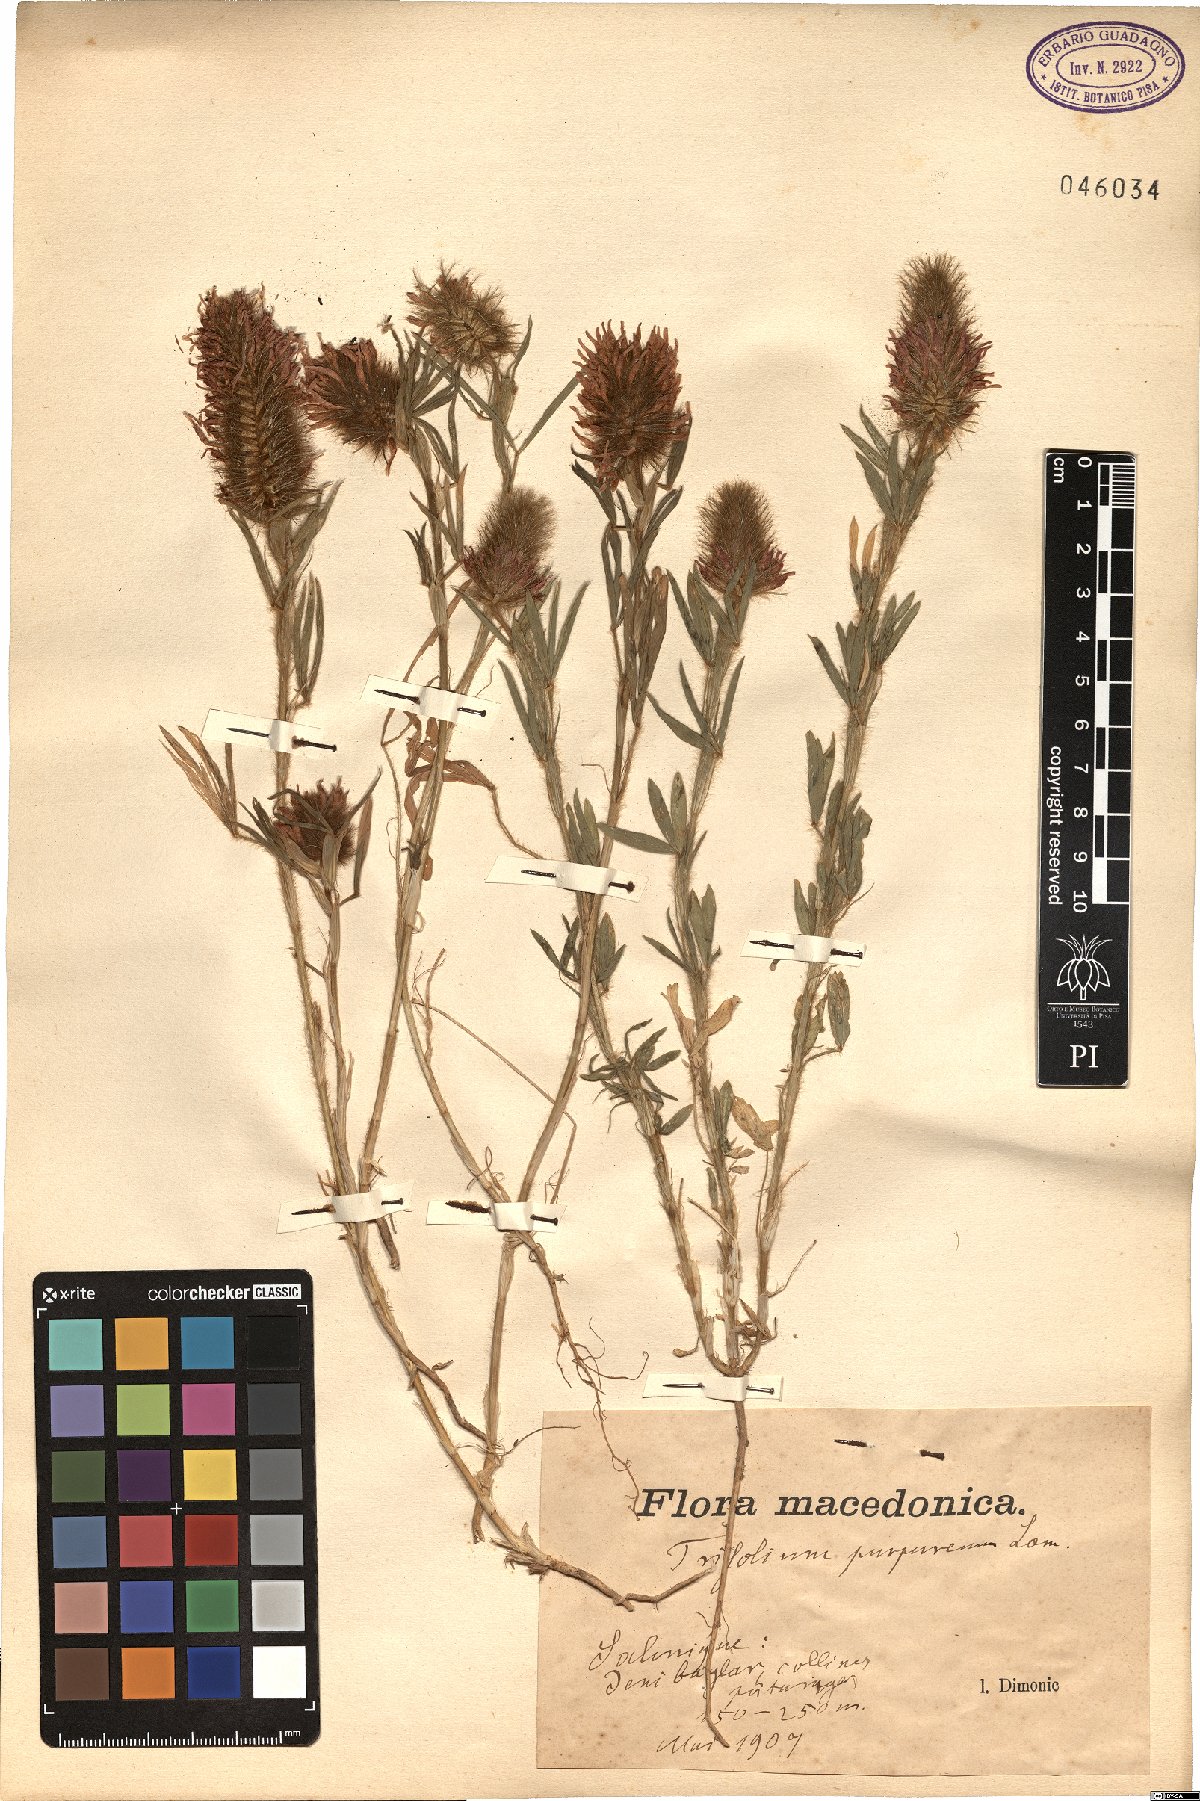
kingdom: Plantae
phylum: Tracheophyta
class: Magnoliopsida
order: Fabales
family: Fabaceae
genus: Trifolium
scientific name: Trifolium purpureum
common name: Purple clover
